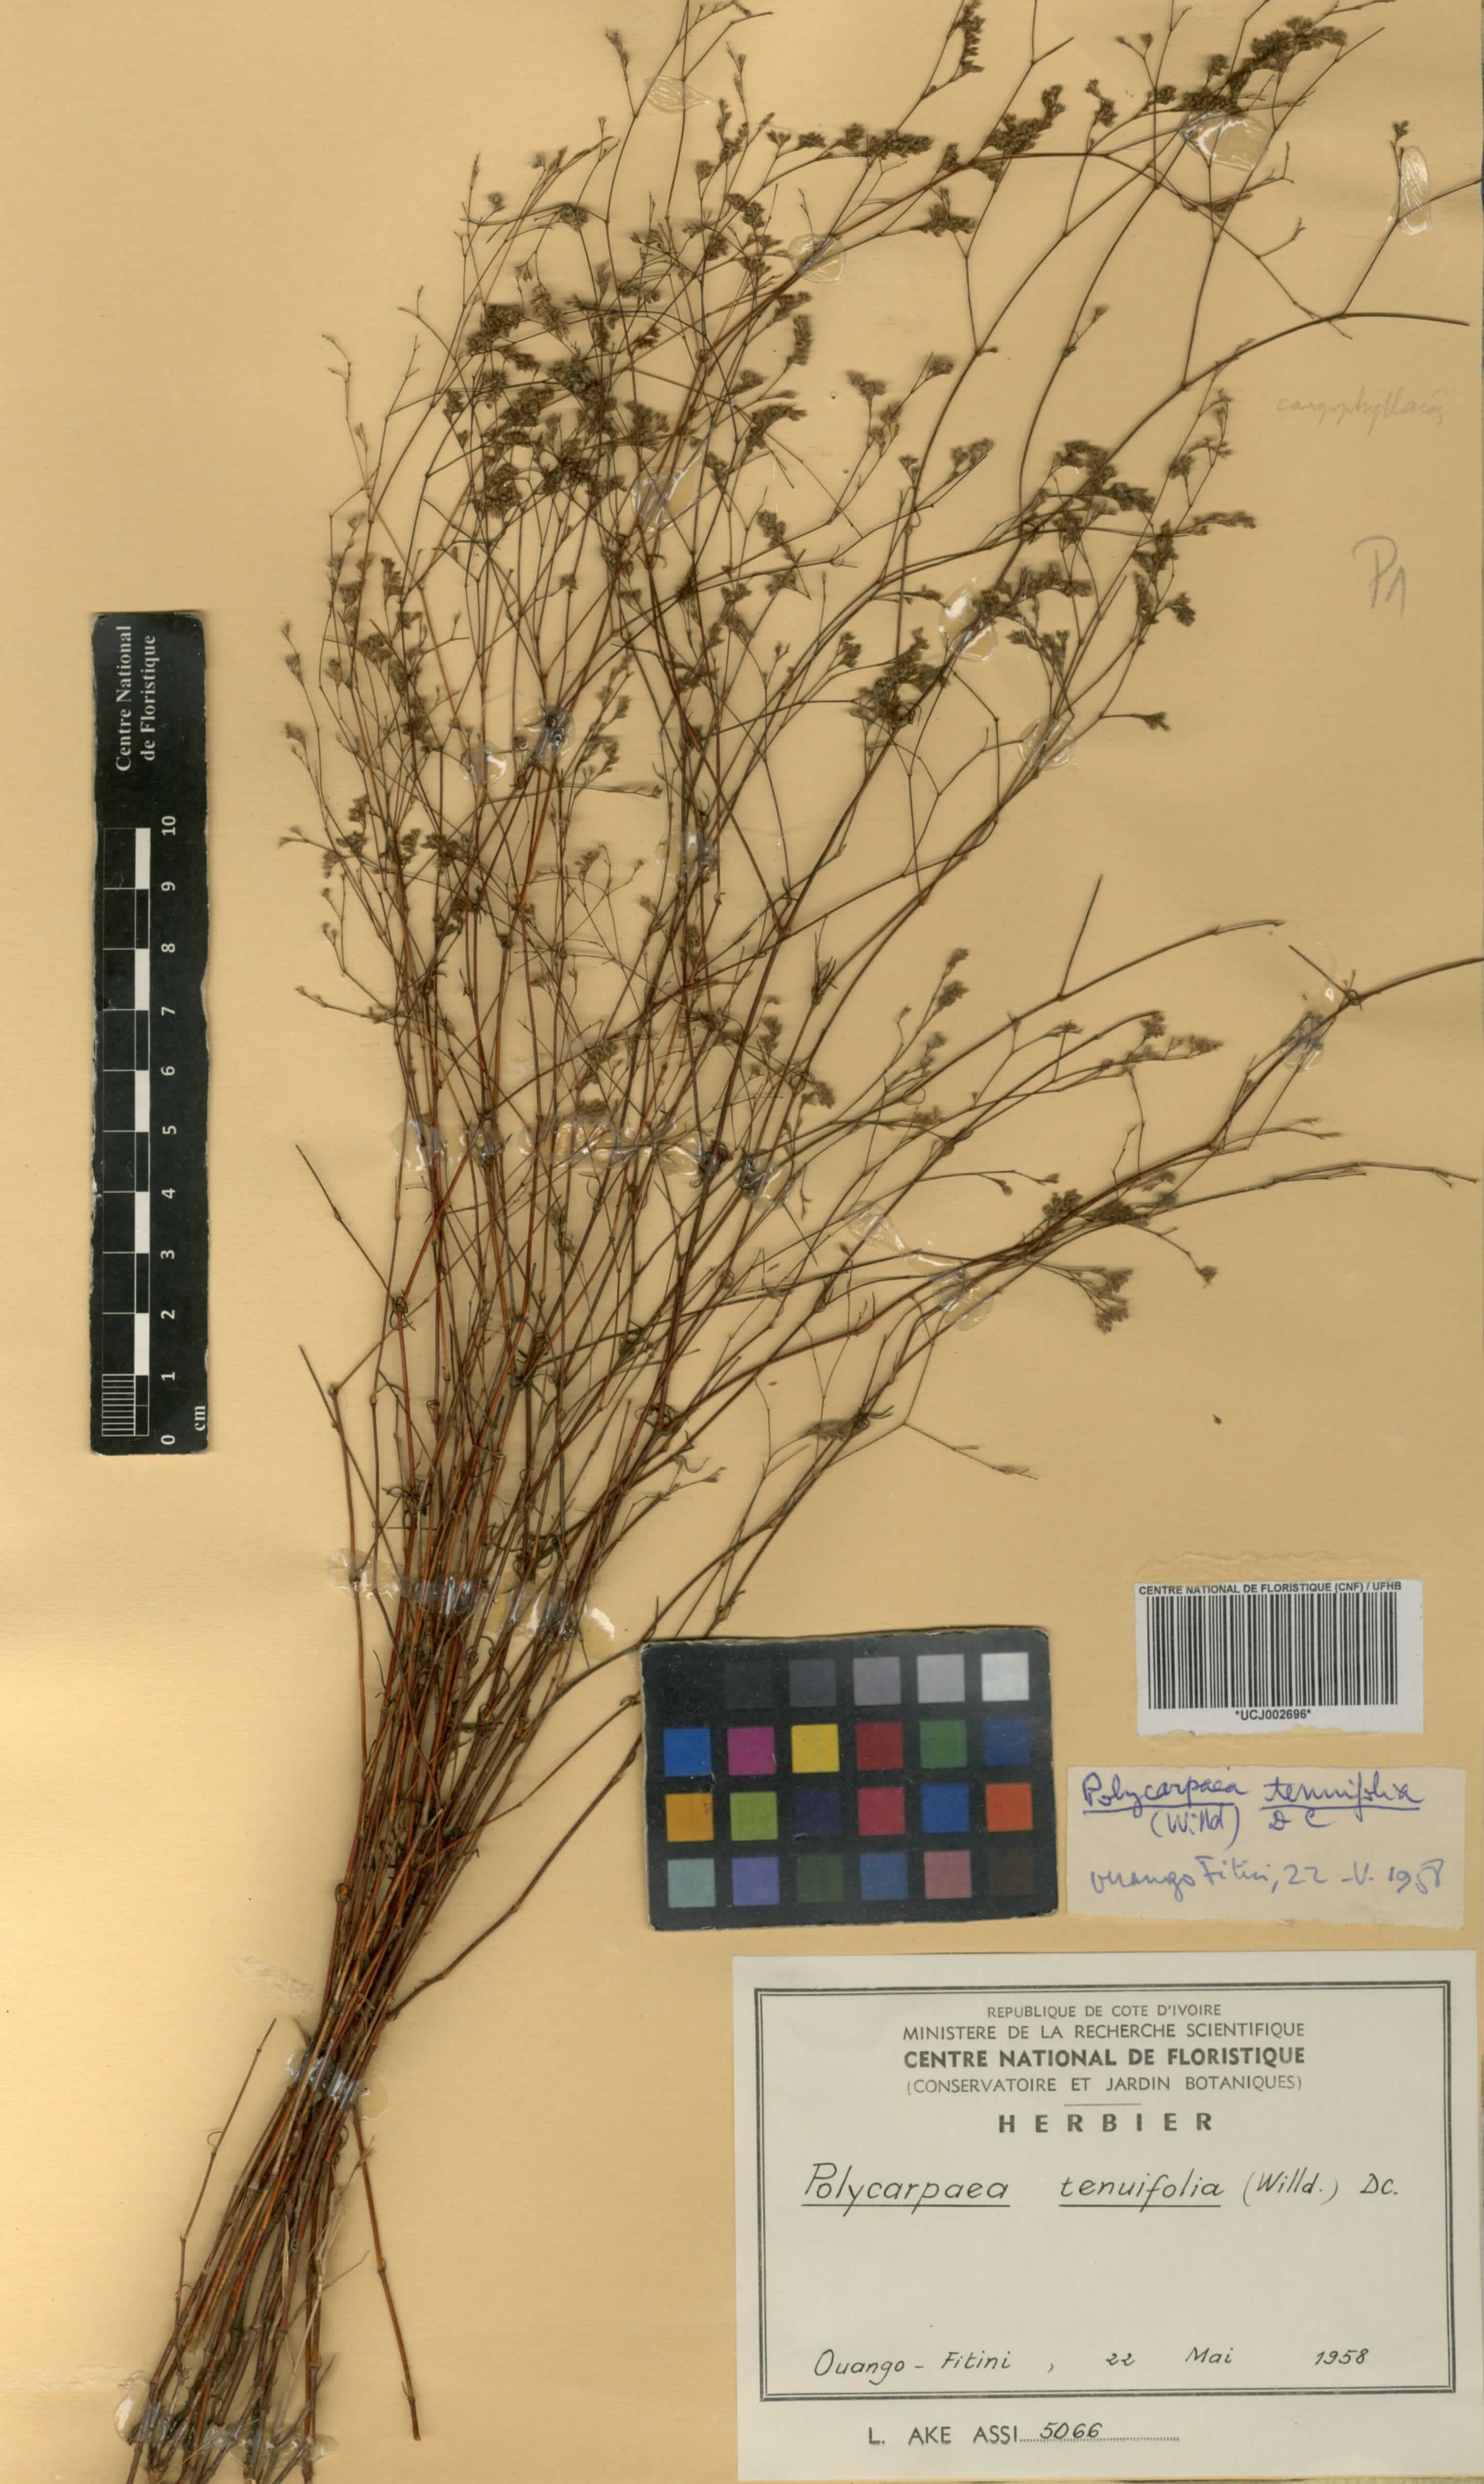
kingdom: Plantae
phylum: Tracheophyta
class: Magnoliopsida
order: Caryophyllales
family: Caryophyllaceae
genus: Polycarpaea
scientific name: Polycarpaea tenuifolia
